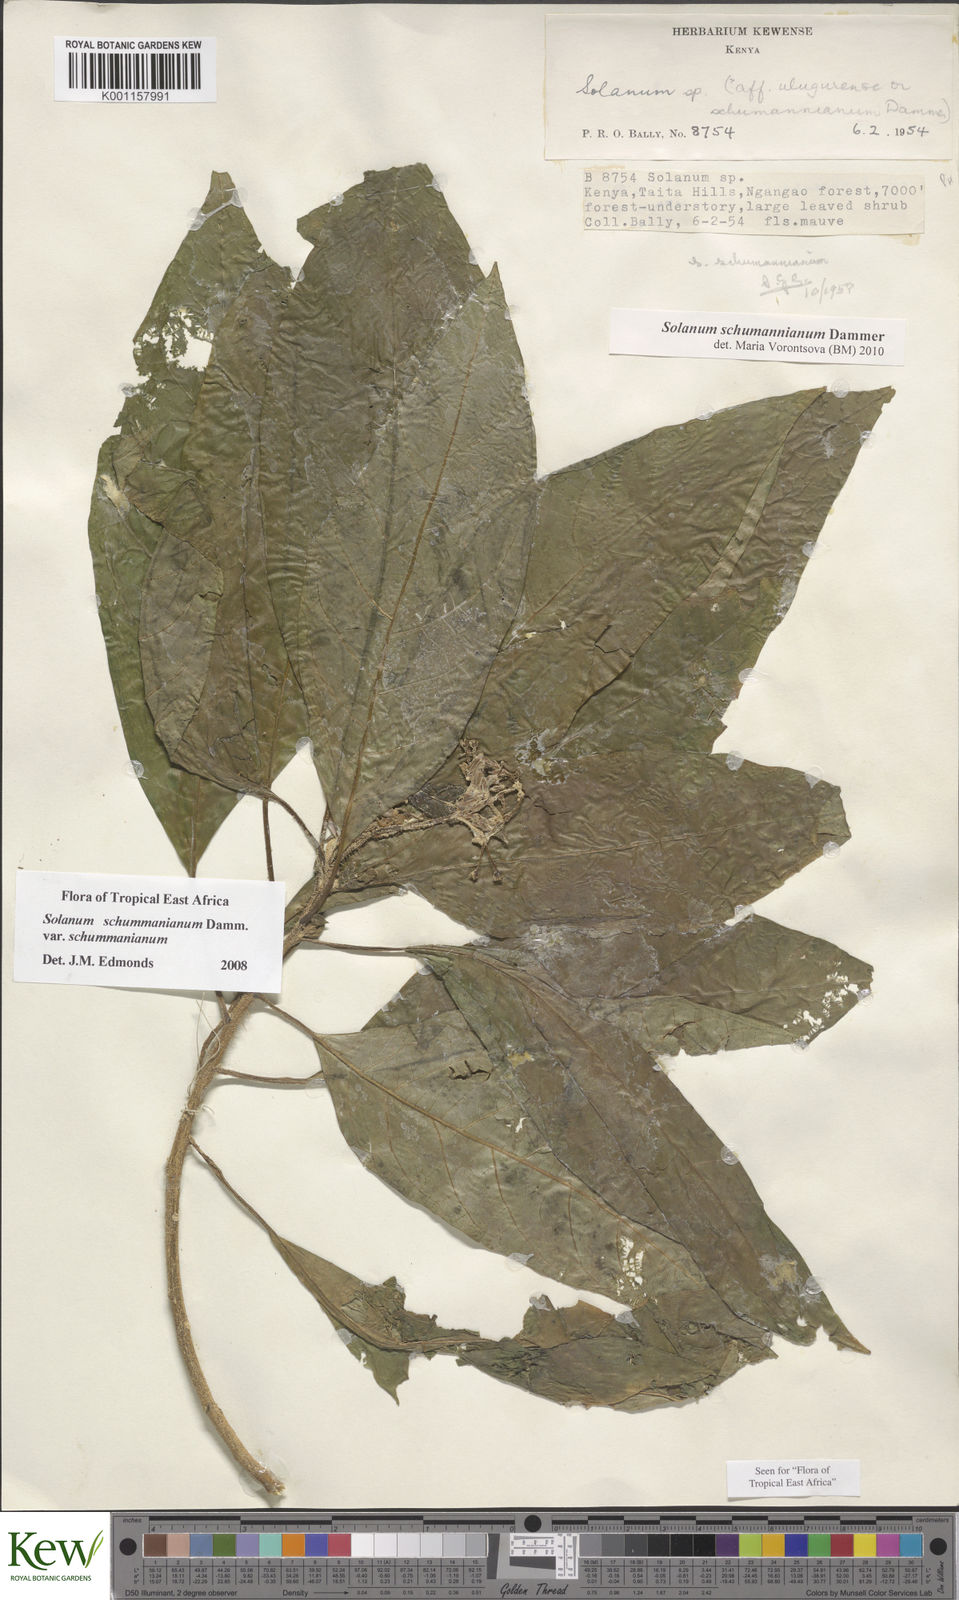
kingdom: Plantae
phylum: Tracheophyta
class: Magnoliopsida
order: Solanales
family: Solanaceae
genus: Solanum
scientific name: Solanum schumannianum
